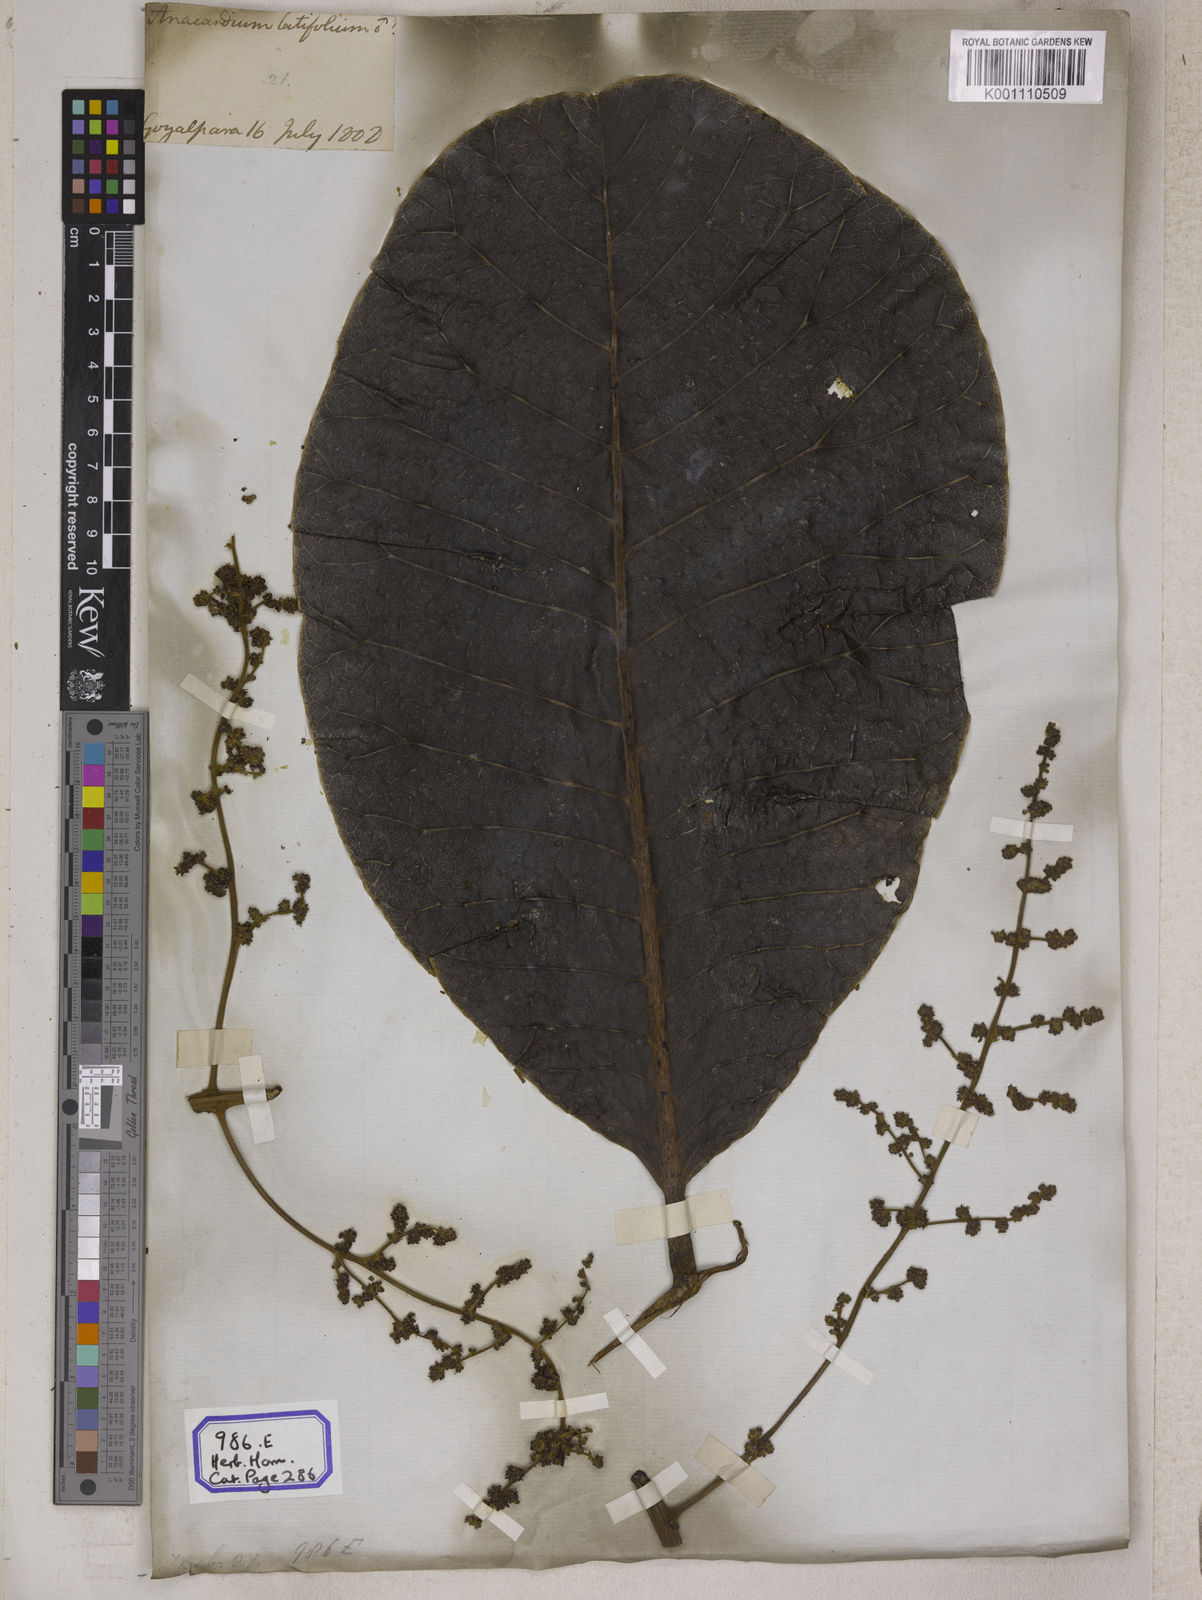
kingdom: Plantae
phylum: Tracheophyta
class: Magnoliopsida
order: Sapindales
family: Anacardiaceae
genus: Semecarpus
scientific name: Semecarpus anacardium
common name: Marking nut-tree
